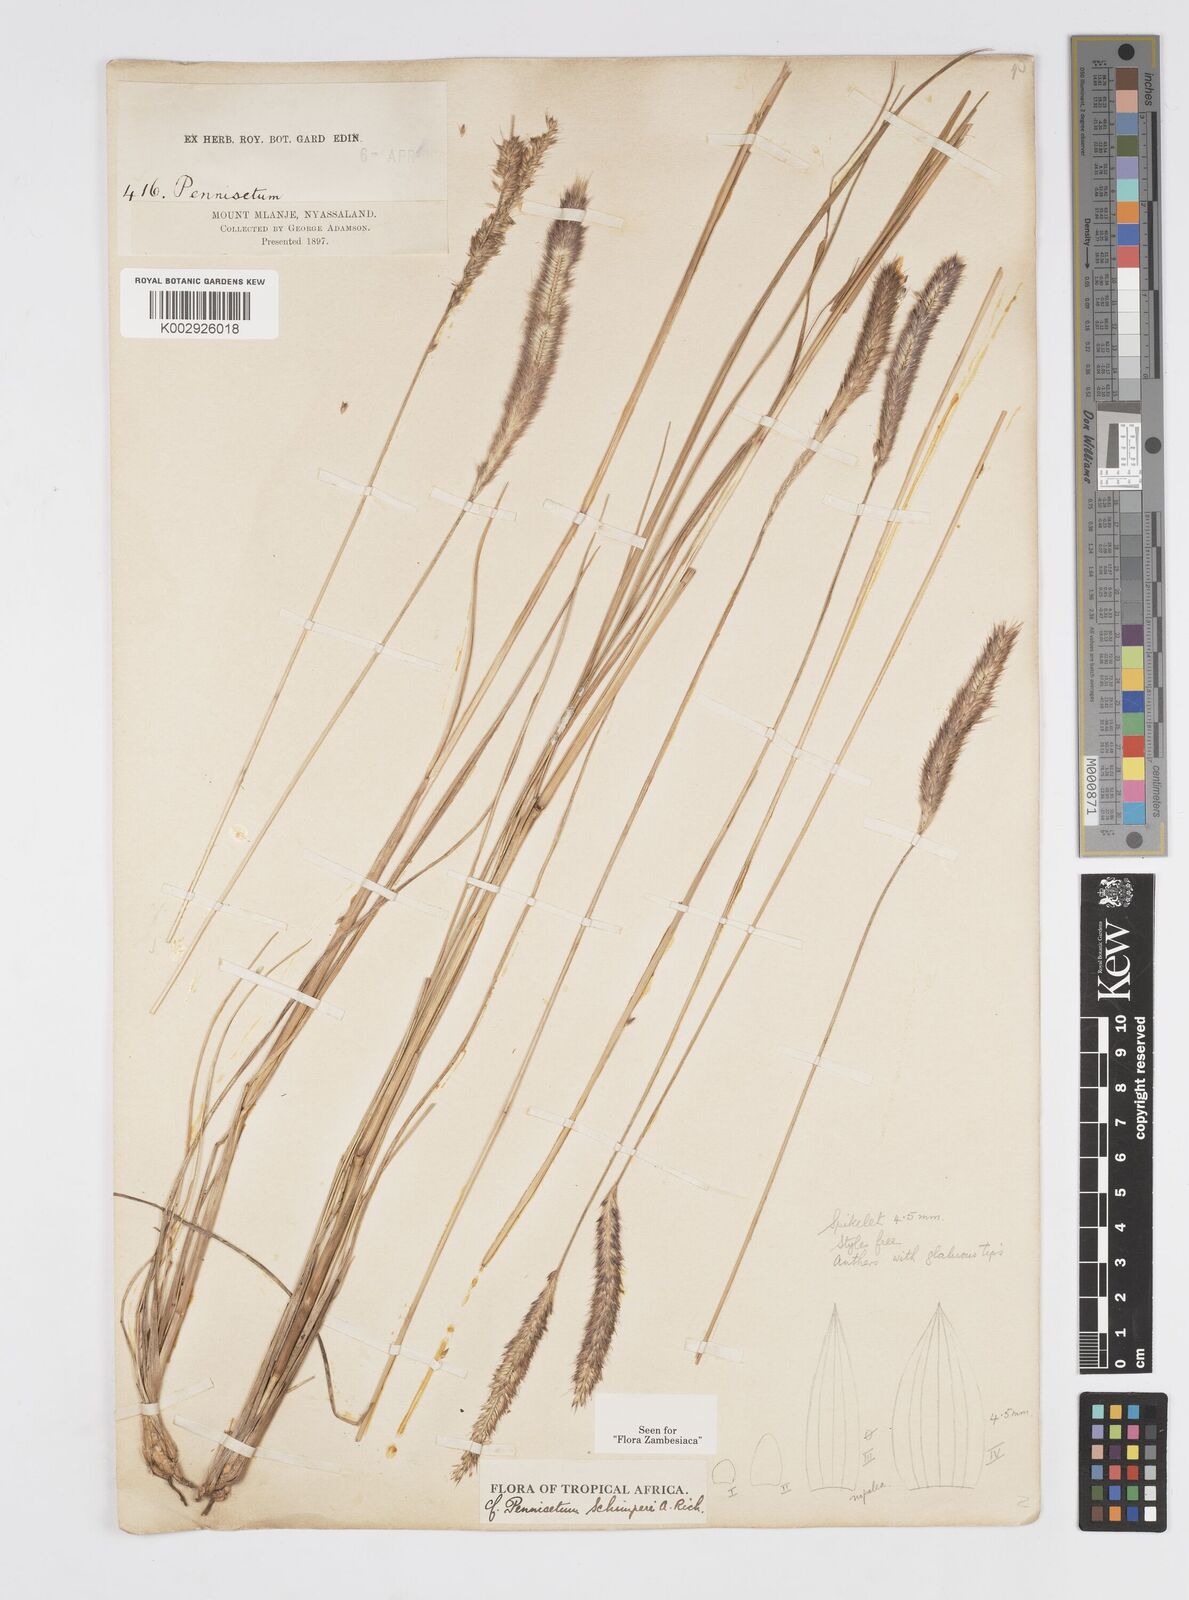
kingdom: Plantae
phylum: Tracheophyta
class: Liliopsida
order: Poales
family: Poaceae
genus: Cenchrus
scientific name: Cenchrus sphacelatus
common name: Bulgras
